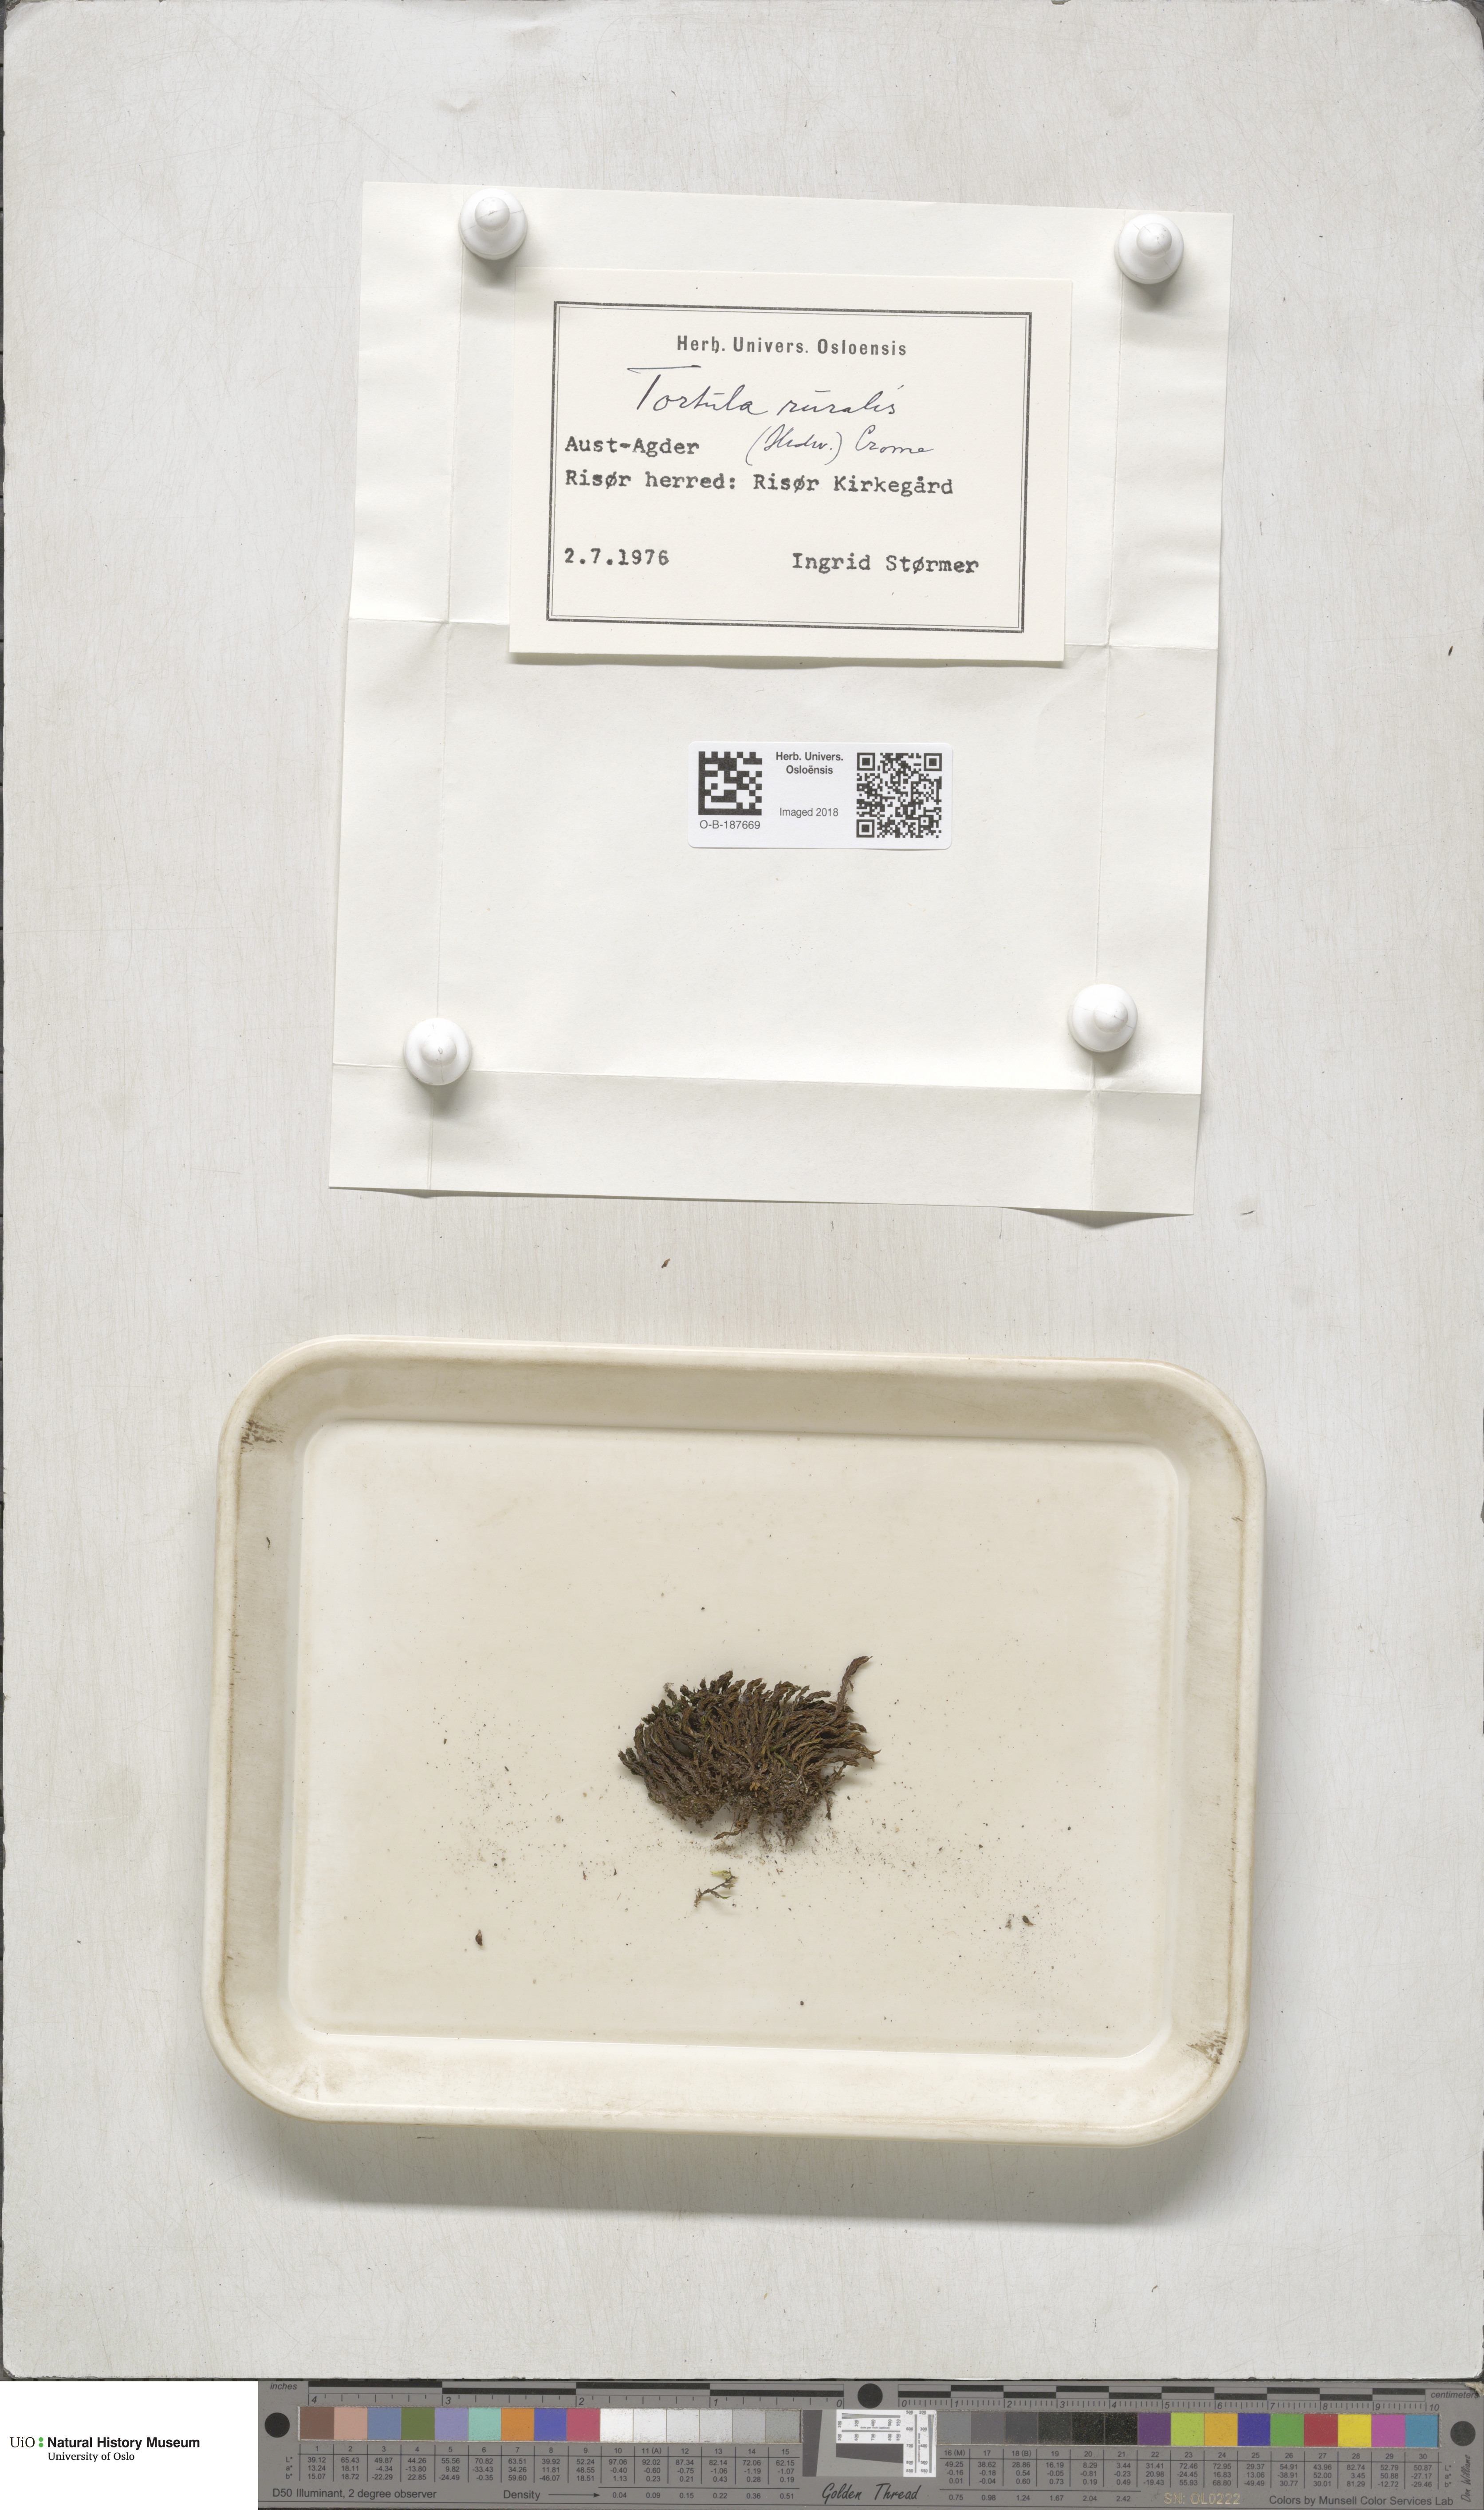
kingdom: Plantae
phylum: Bryophyta
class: Bryopsida
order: Pottiales
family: Pottiaceae
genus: Syntrichia
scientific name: Syntrichia ruralis
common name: Sidewalk screw moss
